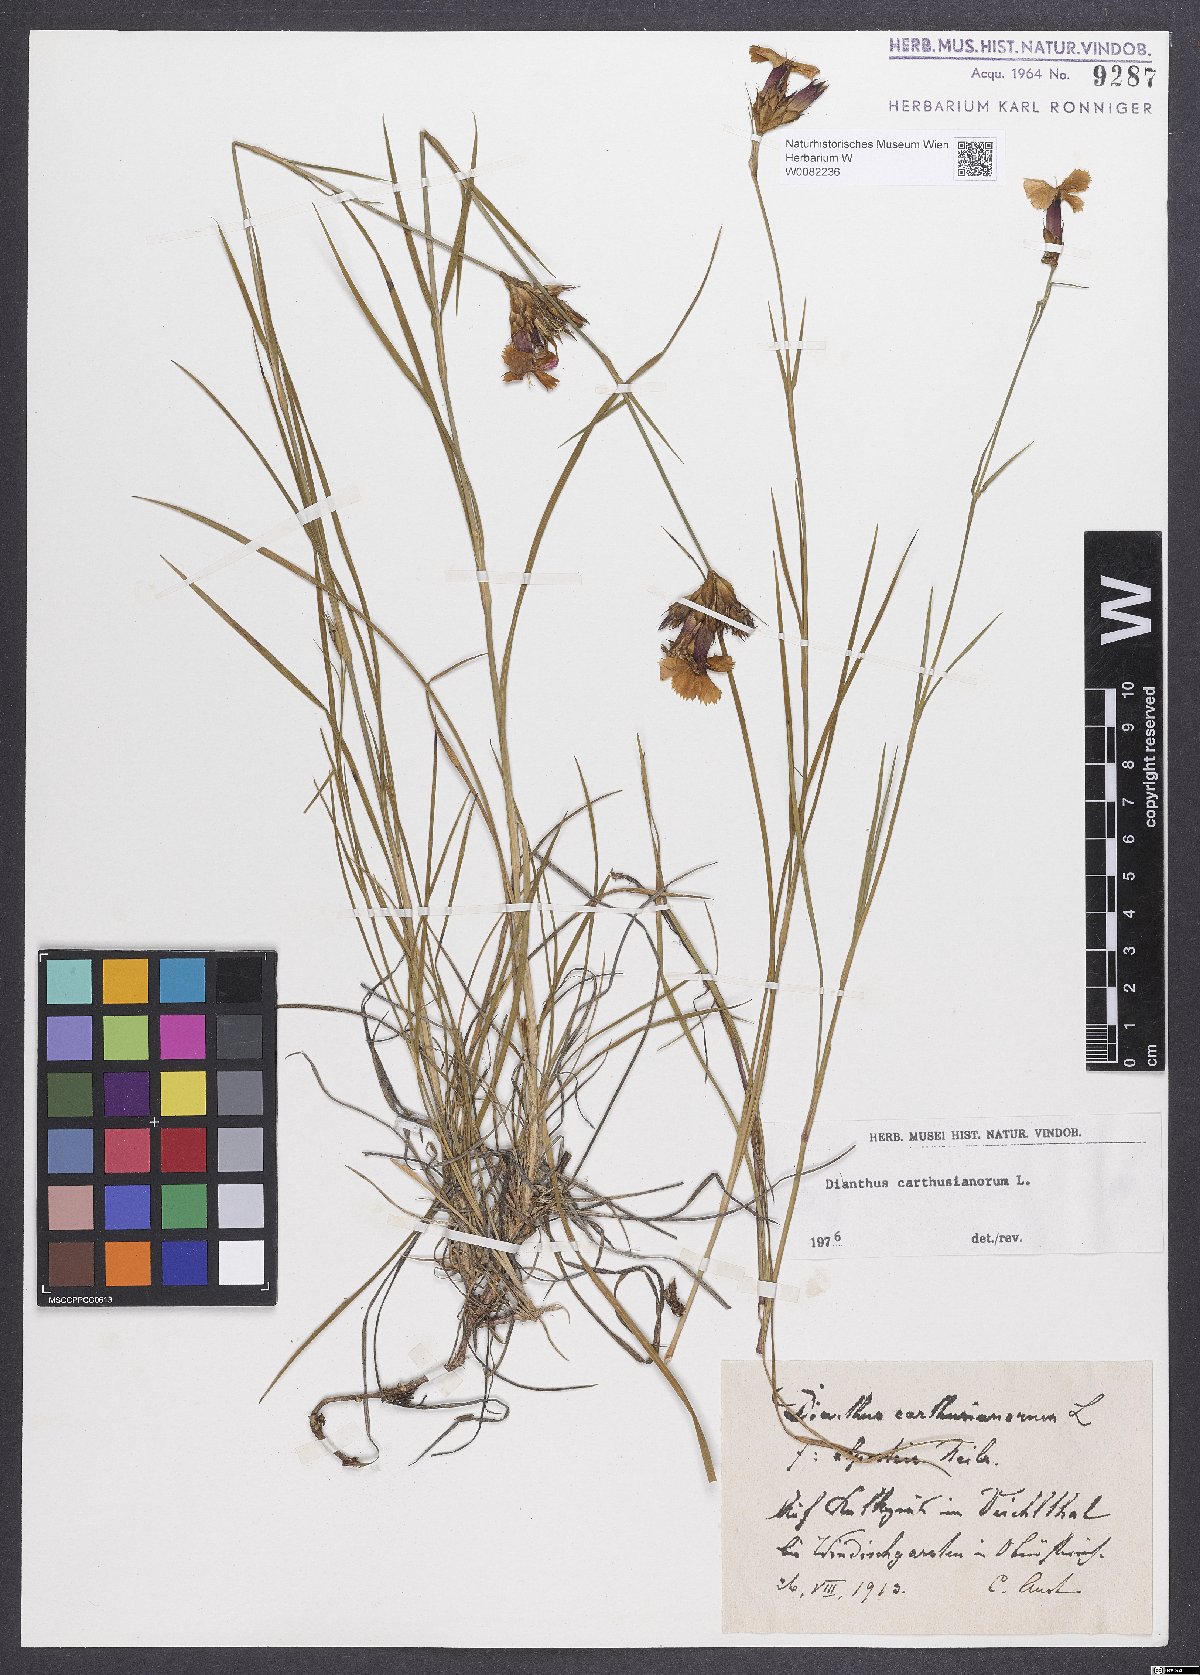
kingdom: Plantae
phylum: Tracheophyta
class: Magnoliopsida
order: Caryophyllales
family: Caryophyllaceae
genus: Dianthus
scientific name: Dianthus carthusianorum
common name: Carthusian pink
